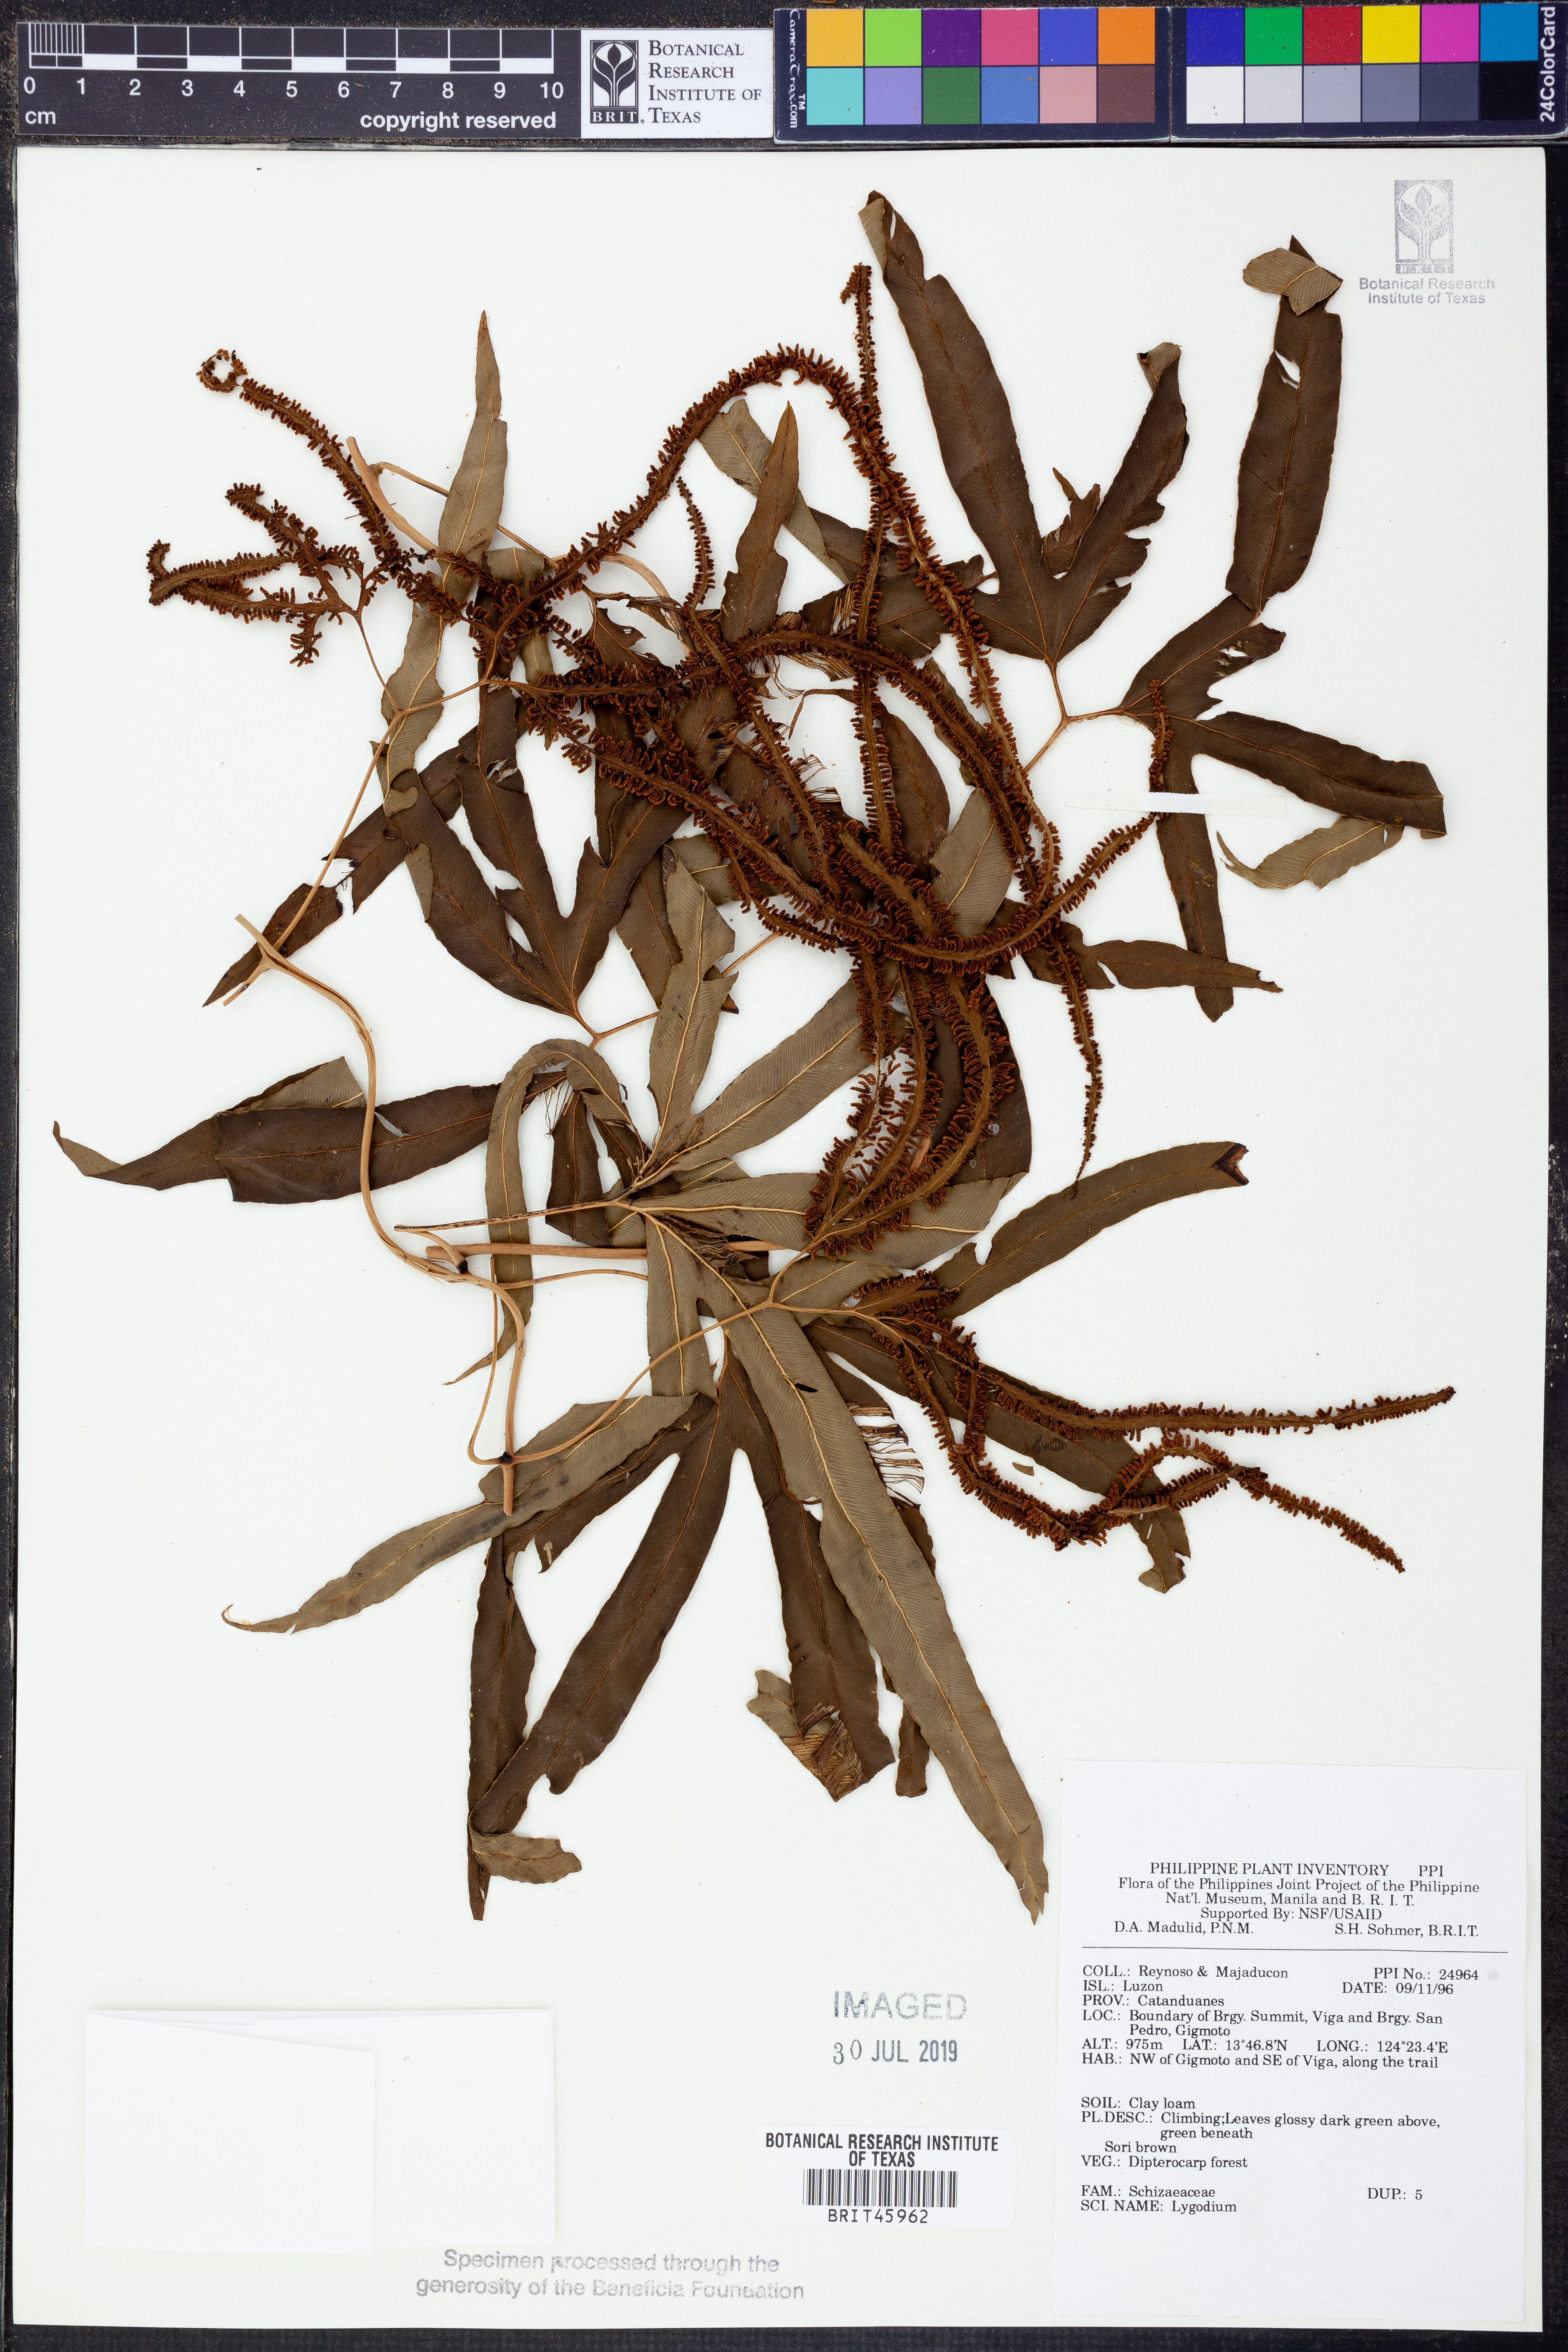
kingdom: Plantae
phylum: Tracheophyta
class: Polypodiopsida
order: Schizaeales
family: Lygodiaceae
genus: Lygodium
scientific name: Lygodium
